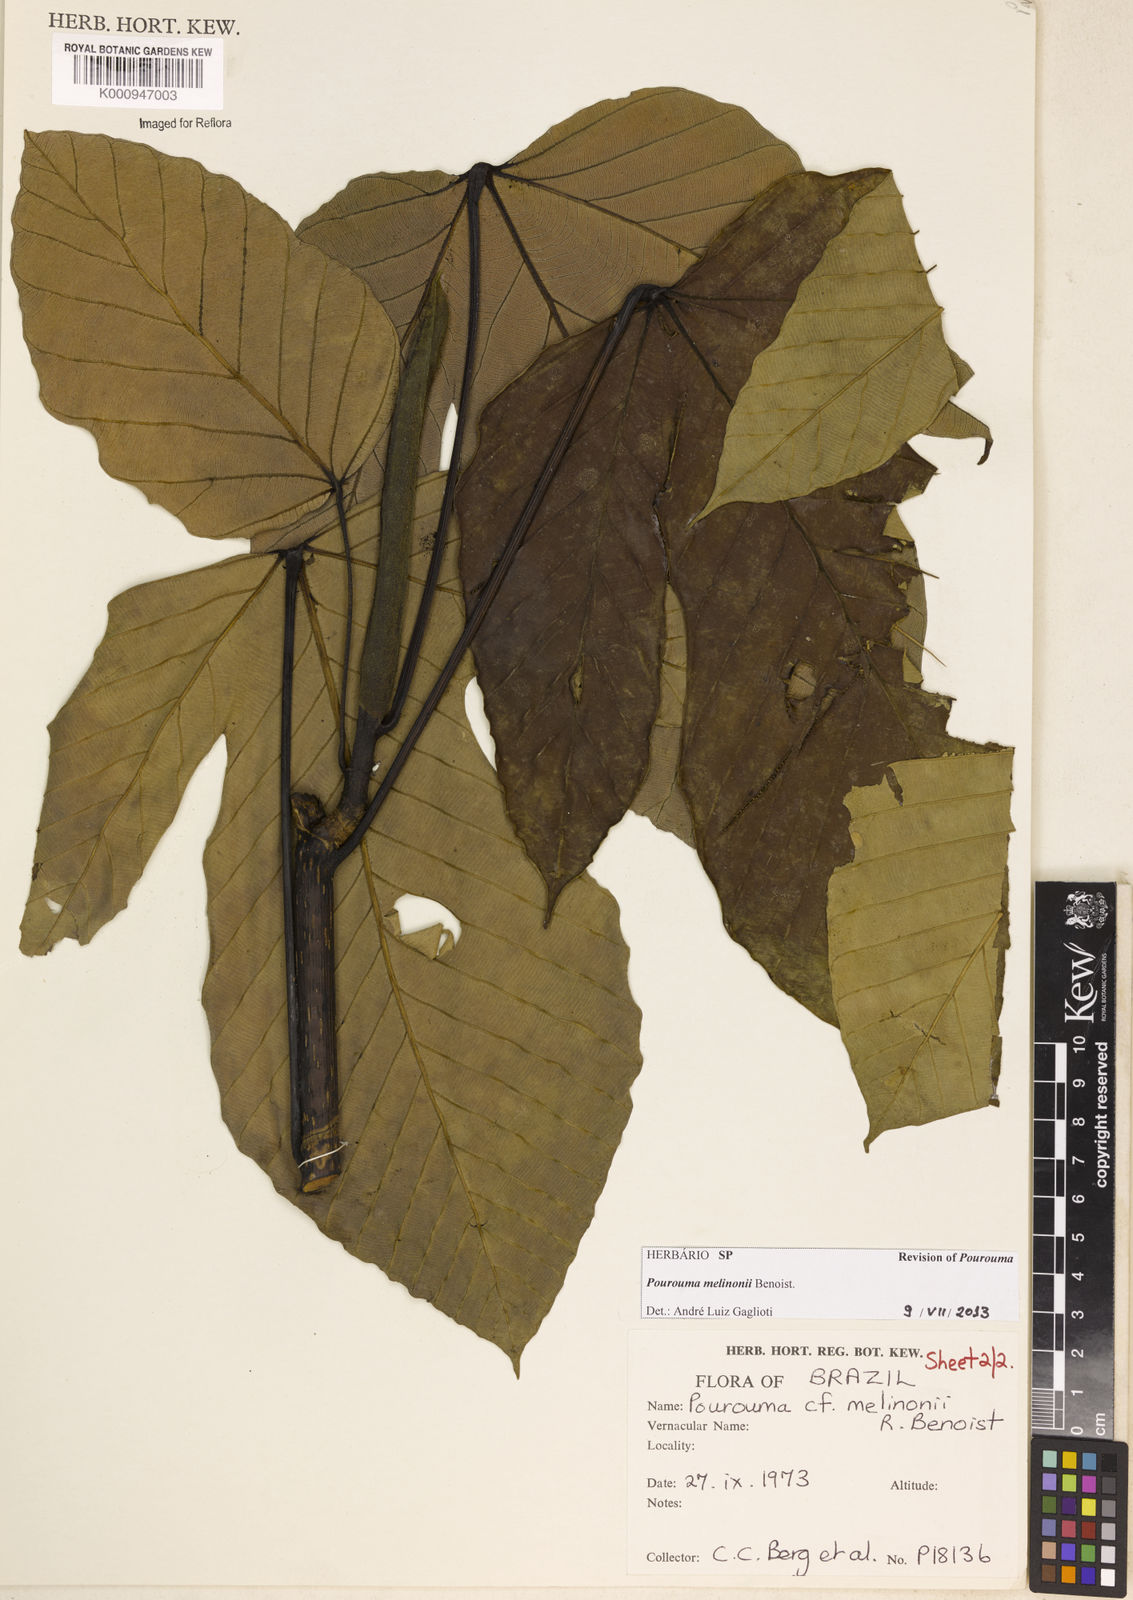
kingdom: Plantae
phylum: Tracheophyta
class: Magnoliopsida
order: Rosales
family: Urticaceae
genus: Pourouma
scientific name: Pourouma melinonii
